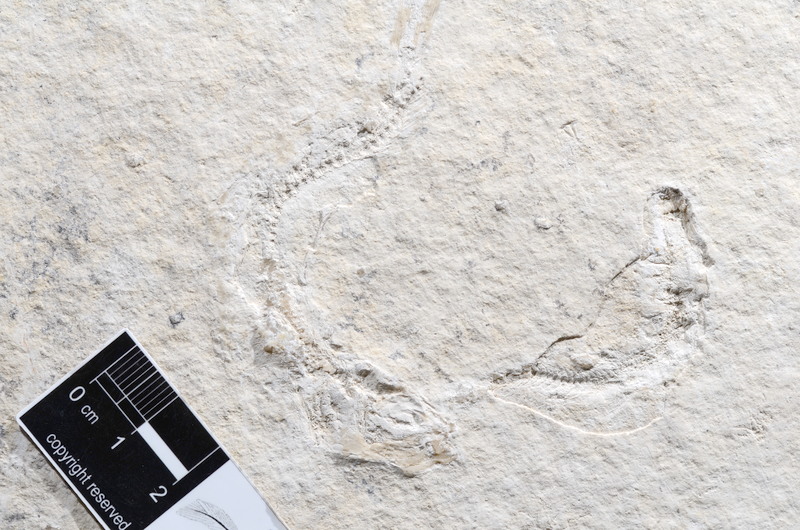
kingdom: Animalia
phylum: Chordata
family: Ascalaboidae
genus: Tharsis
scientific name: Tharsis dubius
